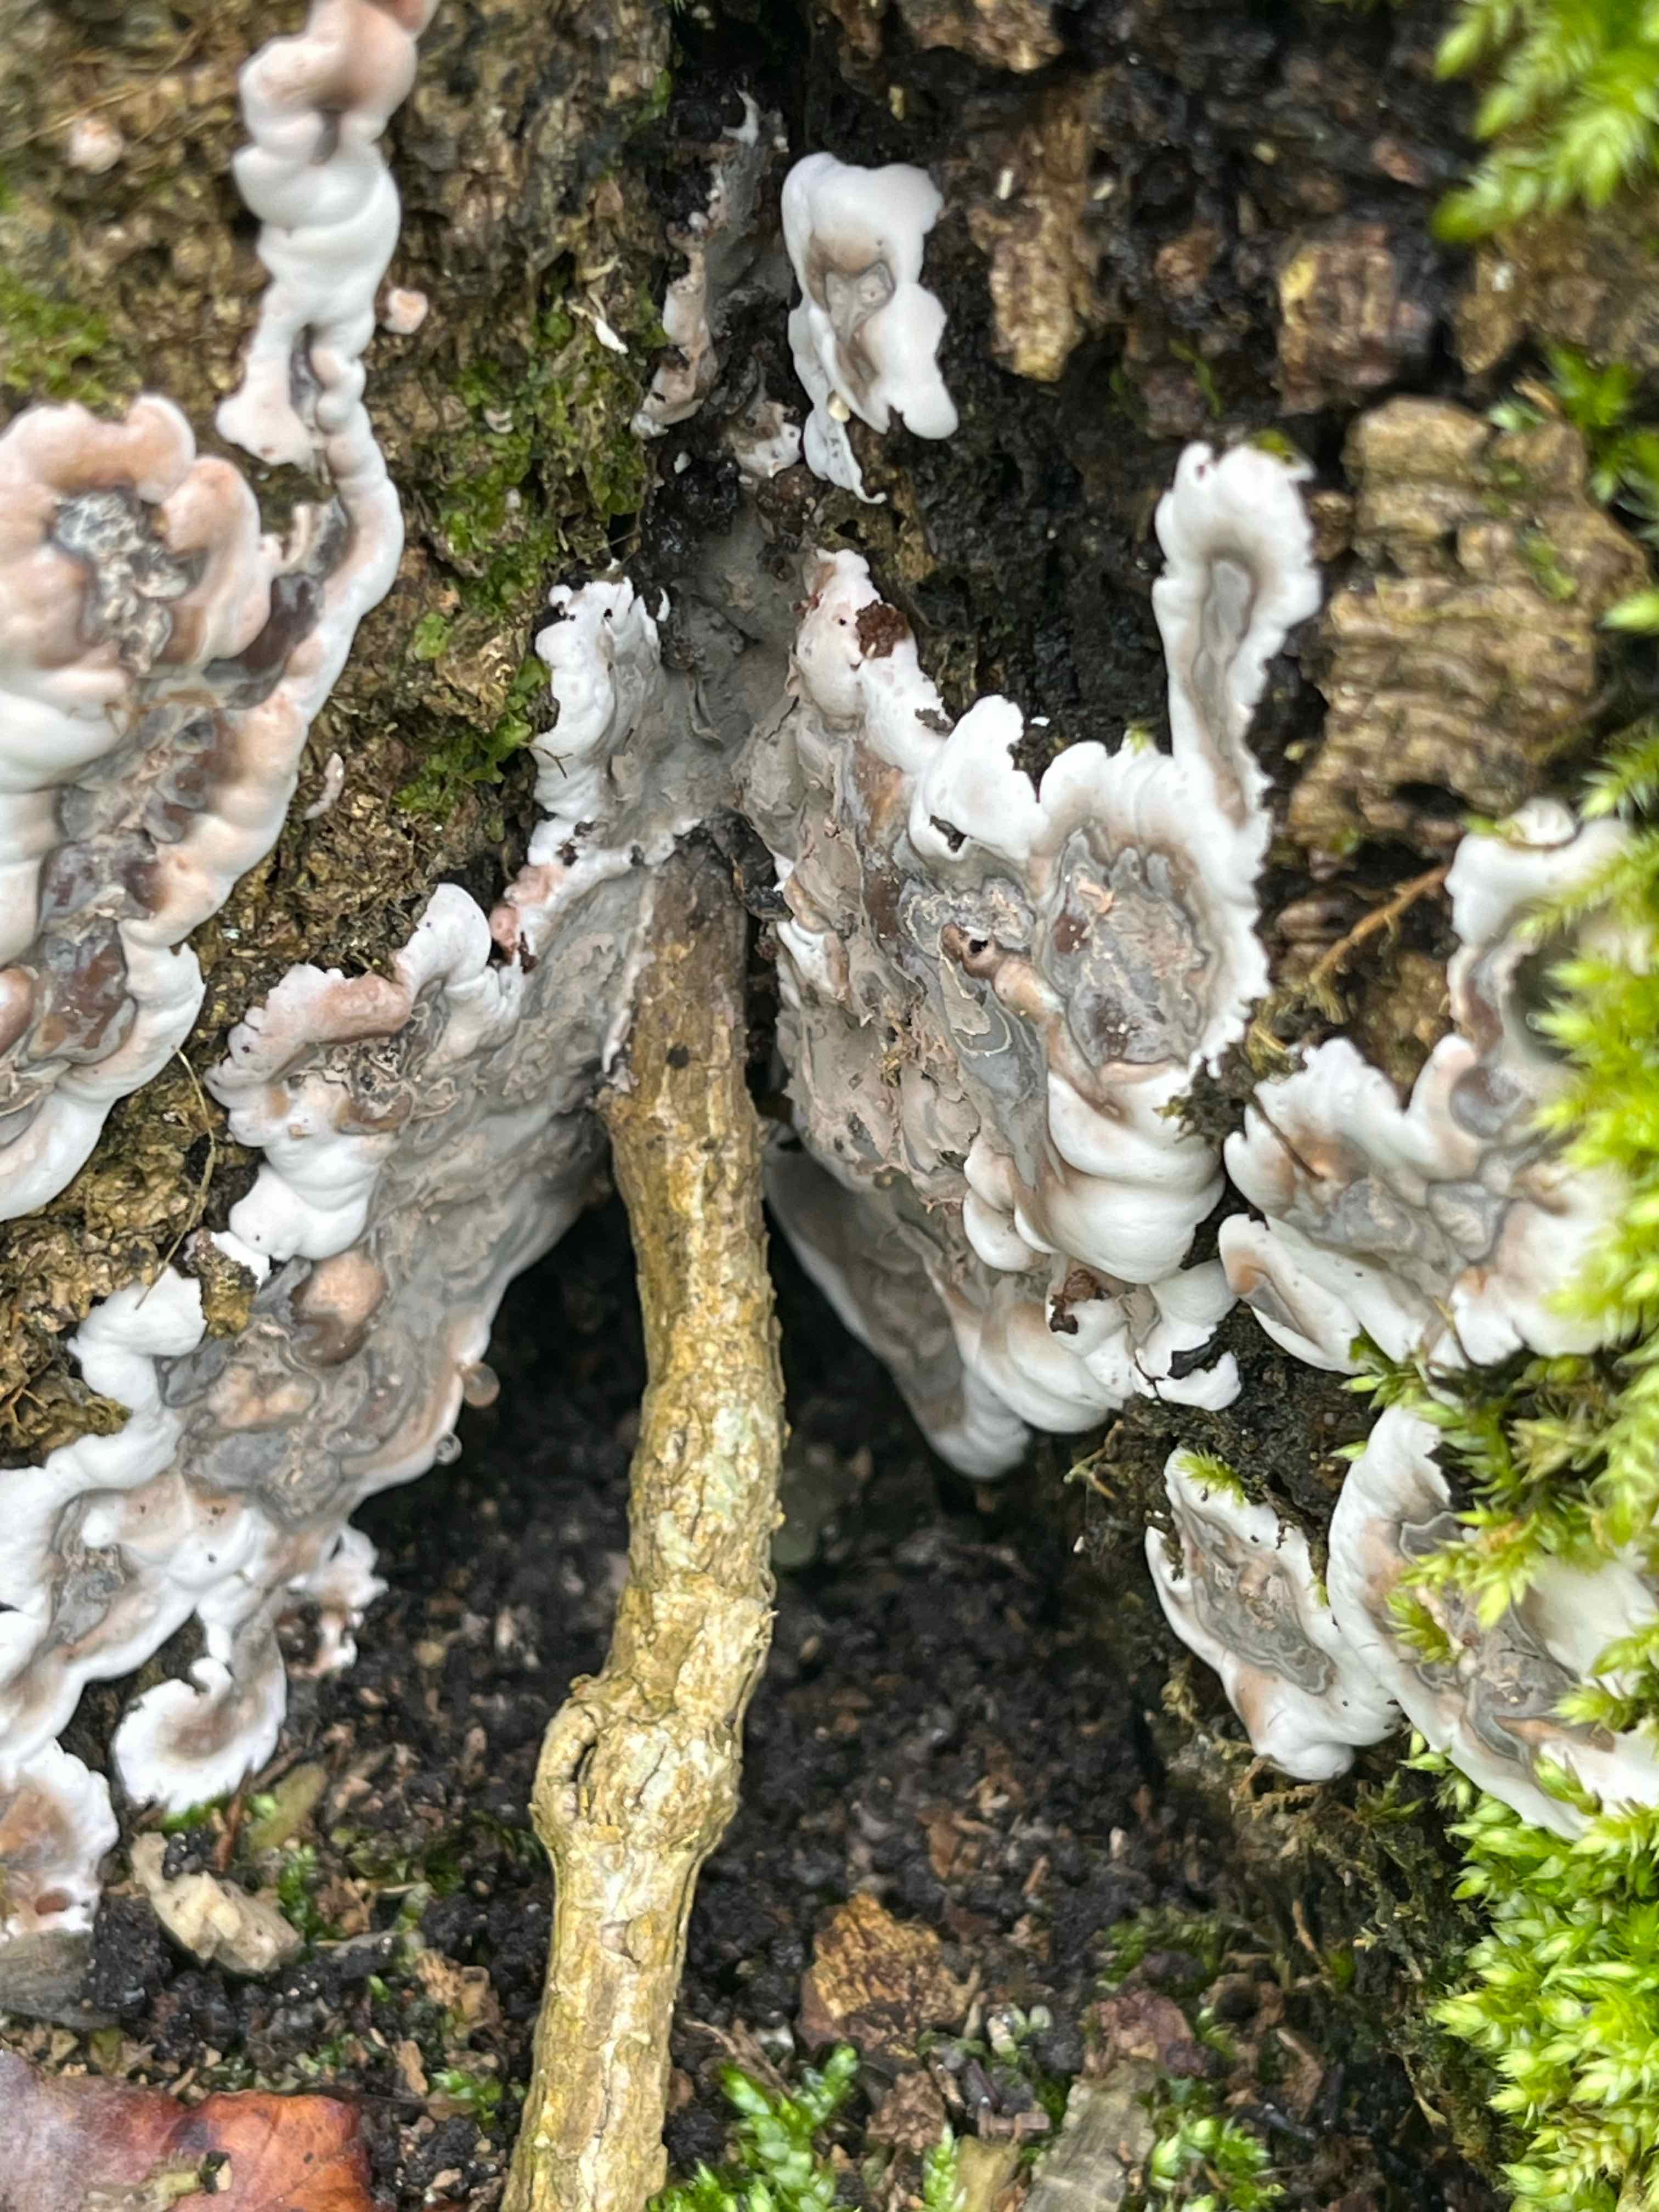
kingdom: Fungi
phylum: Ascomycota
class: Sordariomycetes
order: Xylariales
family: Xylariaceae
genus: Kretzschmaria
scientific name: Kretzschmaria deusta
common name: stor kulsvamp
